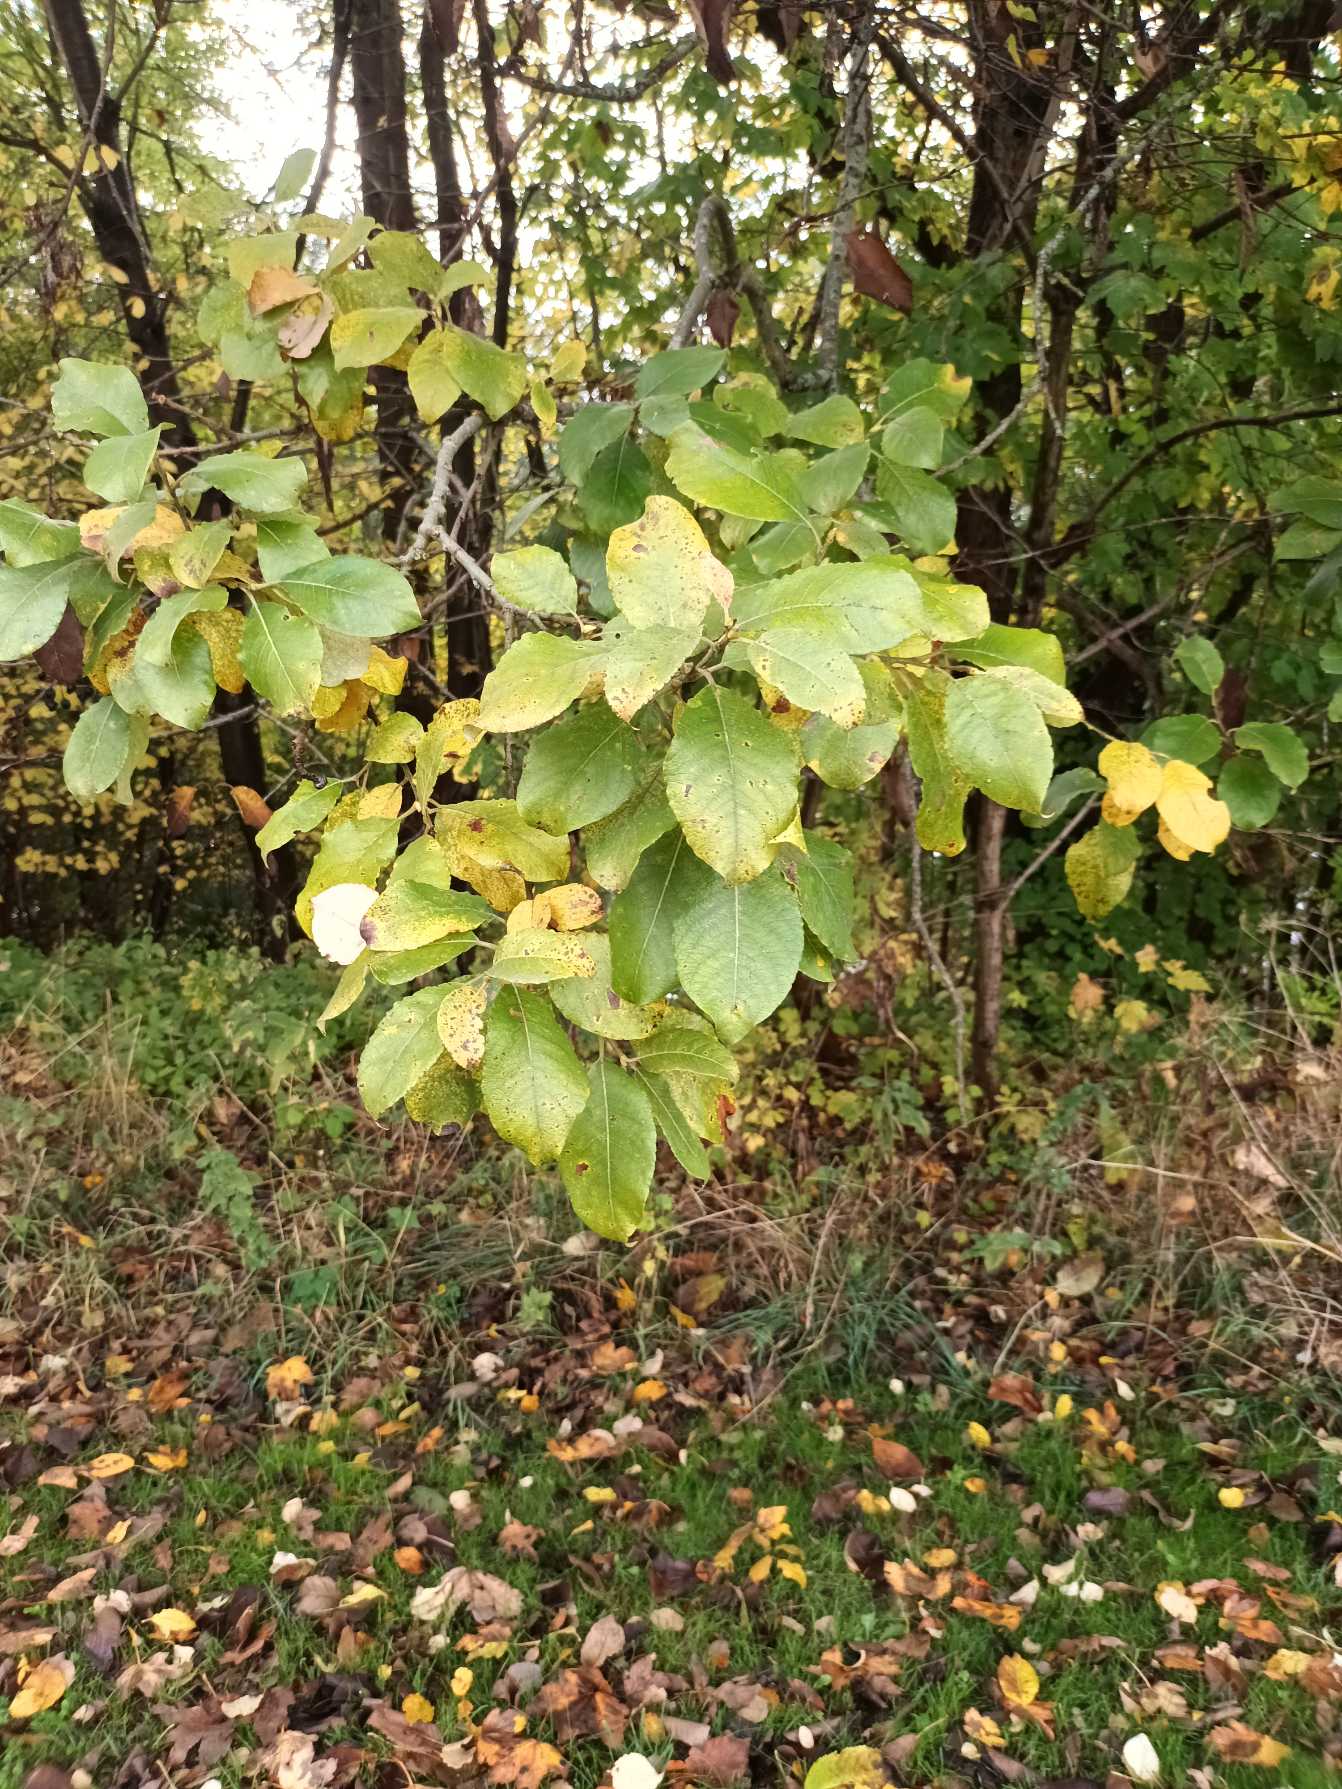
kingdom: Plantae
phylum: Tracheophyta
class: Magnoliopsida
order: Malpighiales
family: Salicaceae
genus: Salix
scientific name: Salix caprea
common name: Selje-pil
